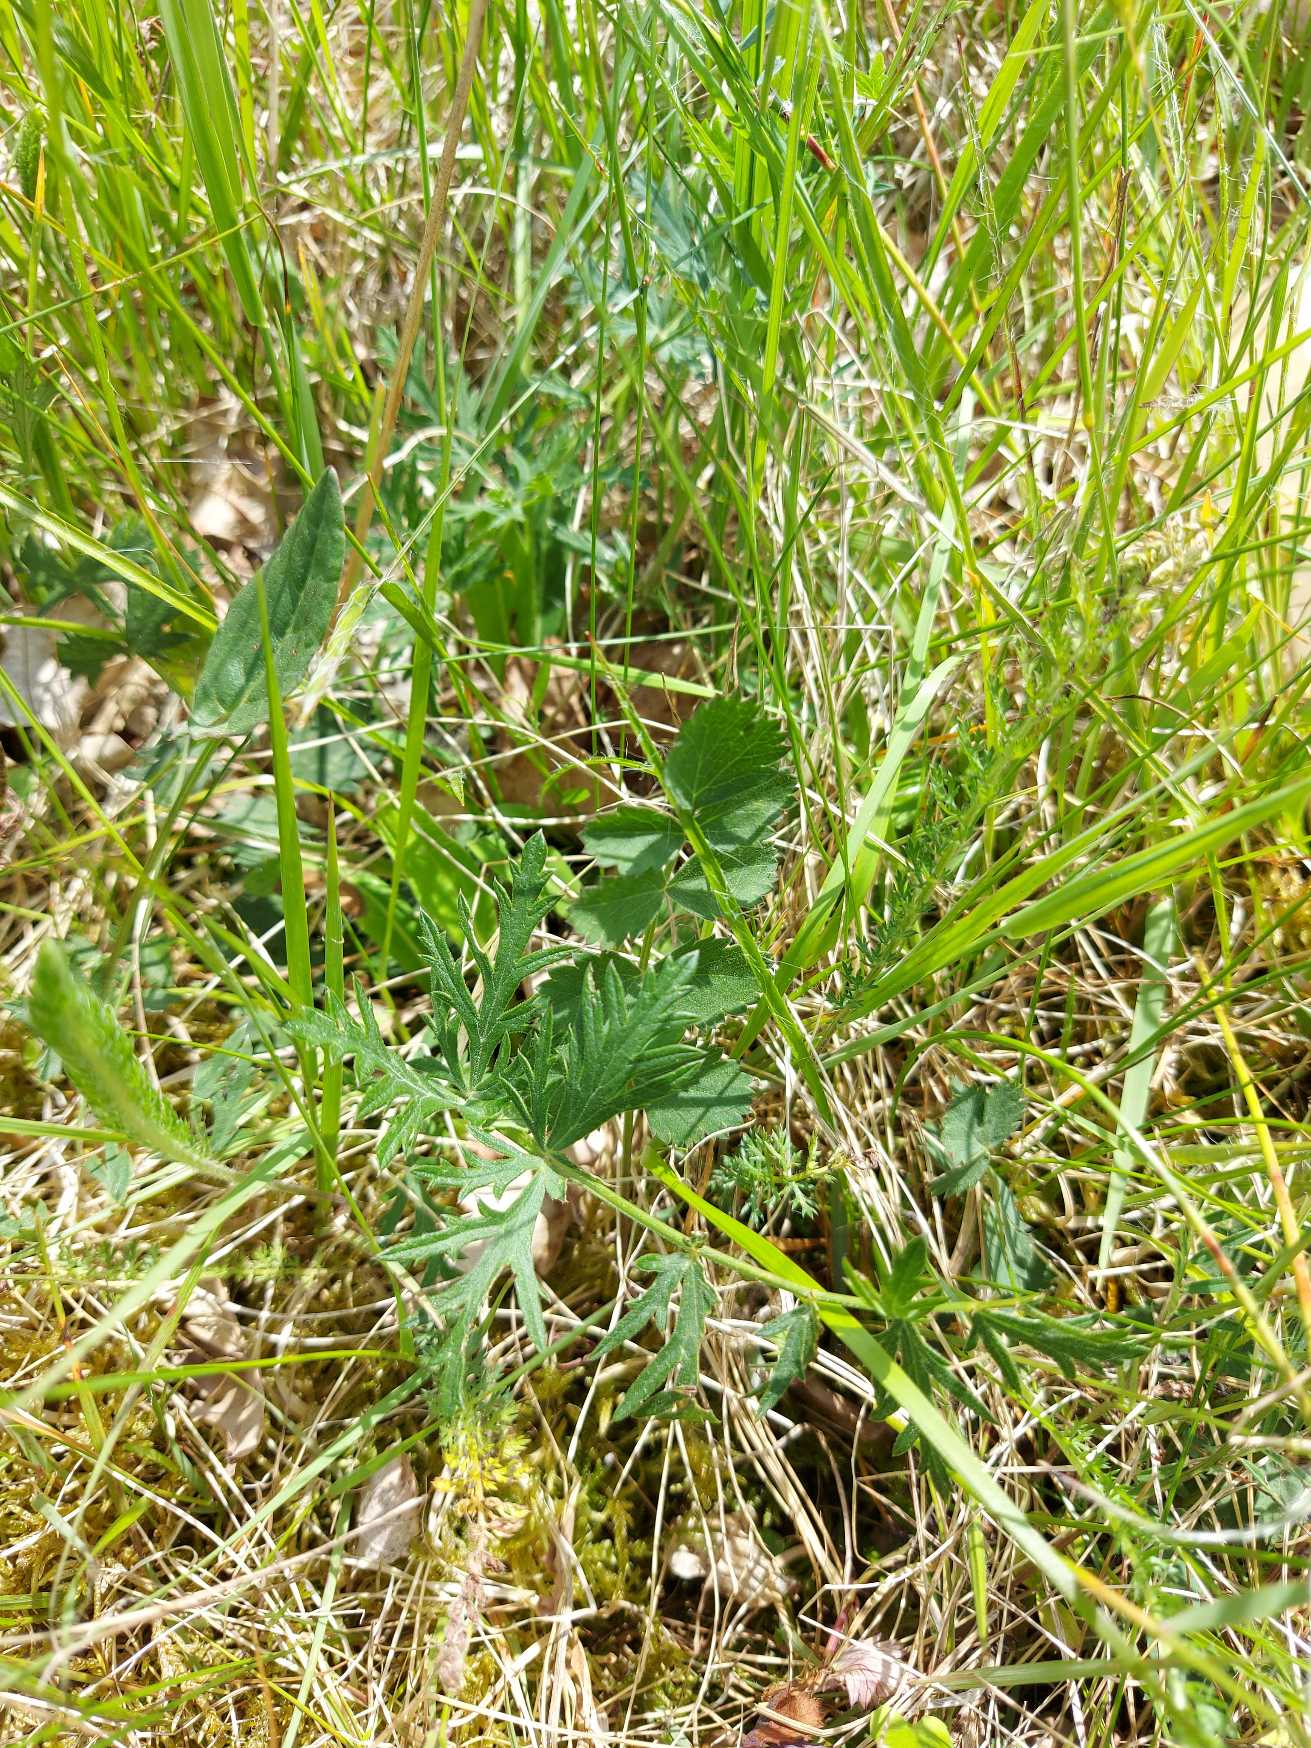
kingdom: Plantae
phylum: Tracheophyta
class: Magnoliopsida
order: Apiales
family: Apiaceae
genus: Pimpinella
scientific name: Pimpinella saxifraga
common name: Almindelig pimpinelle
